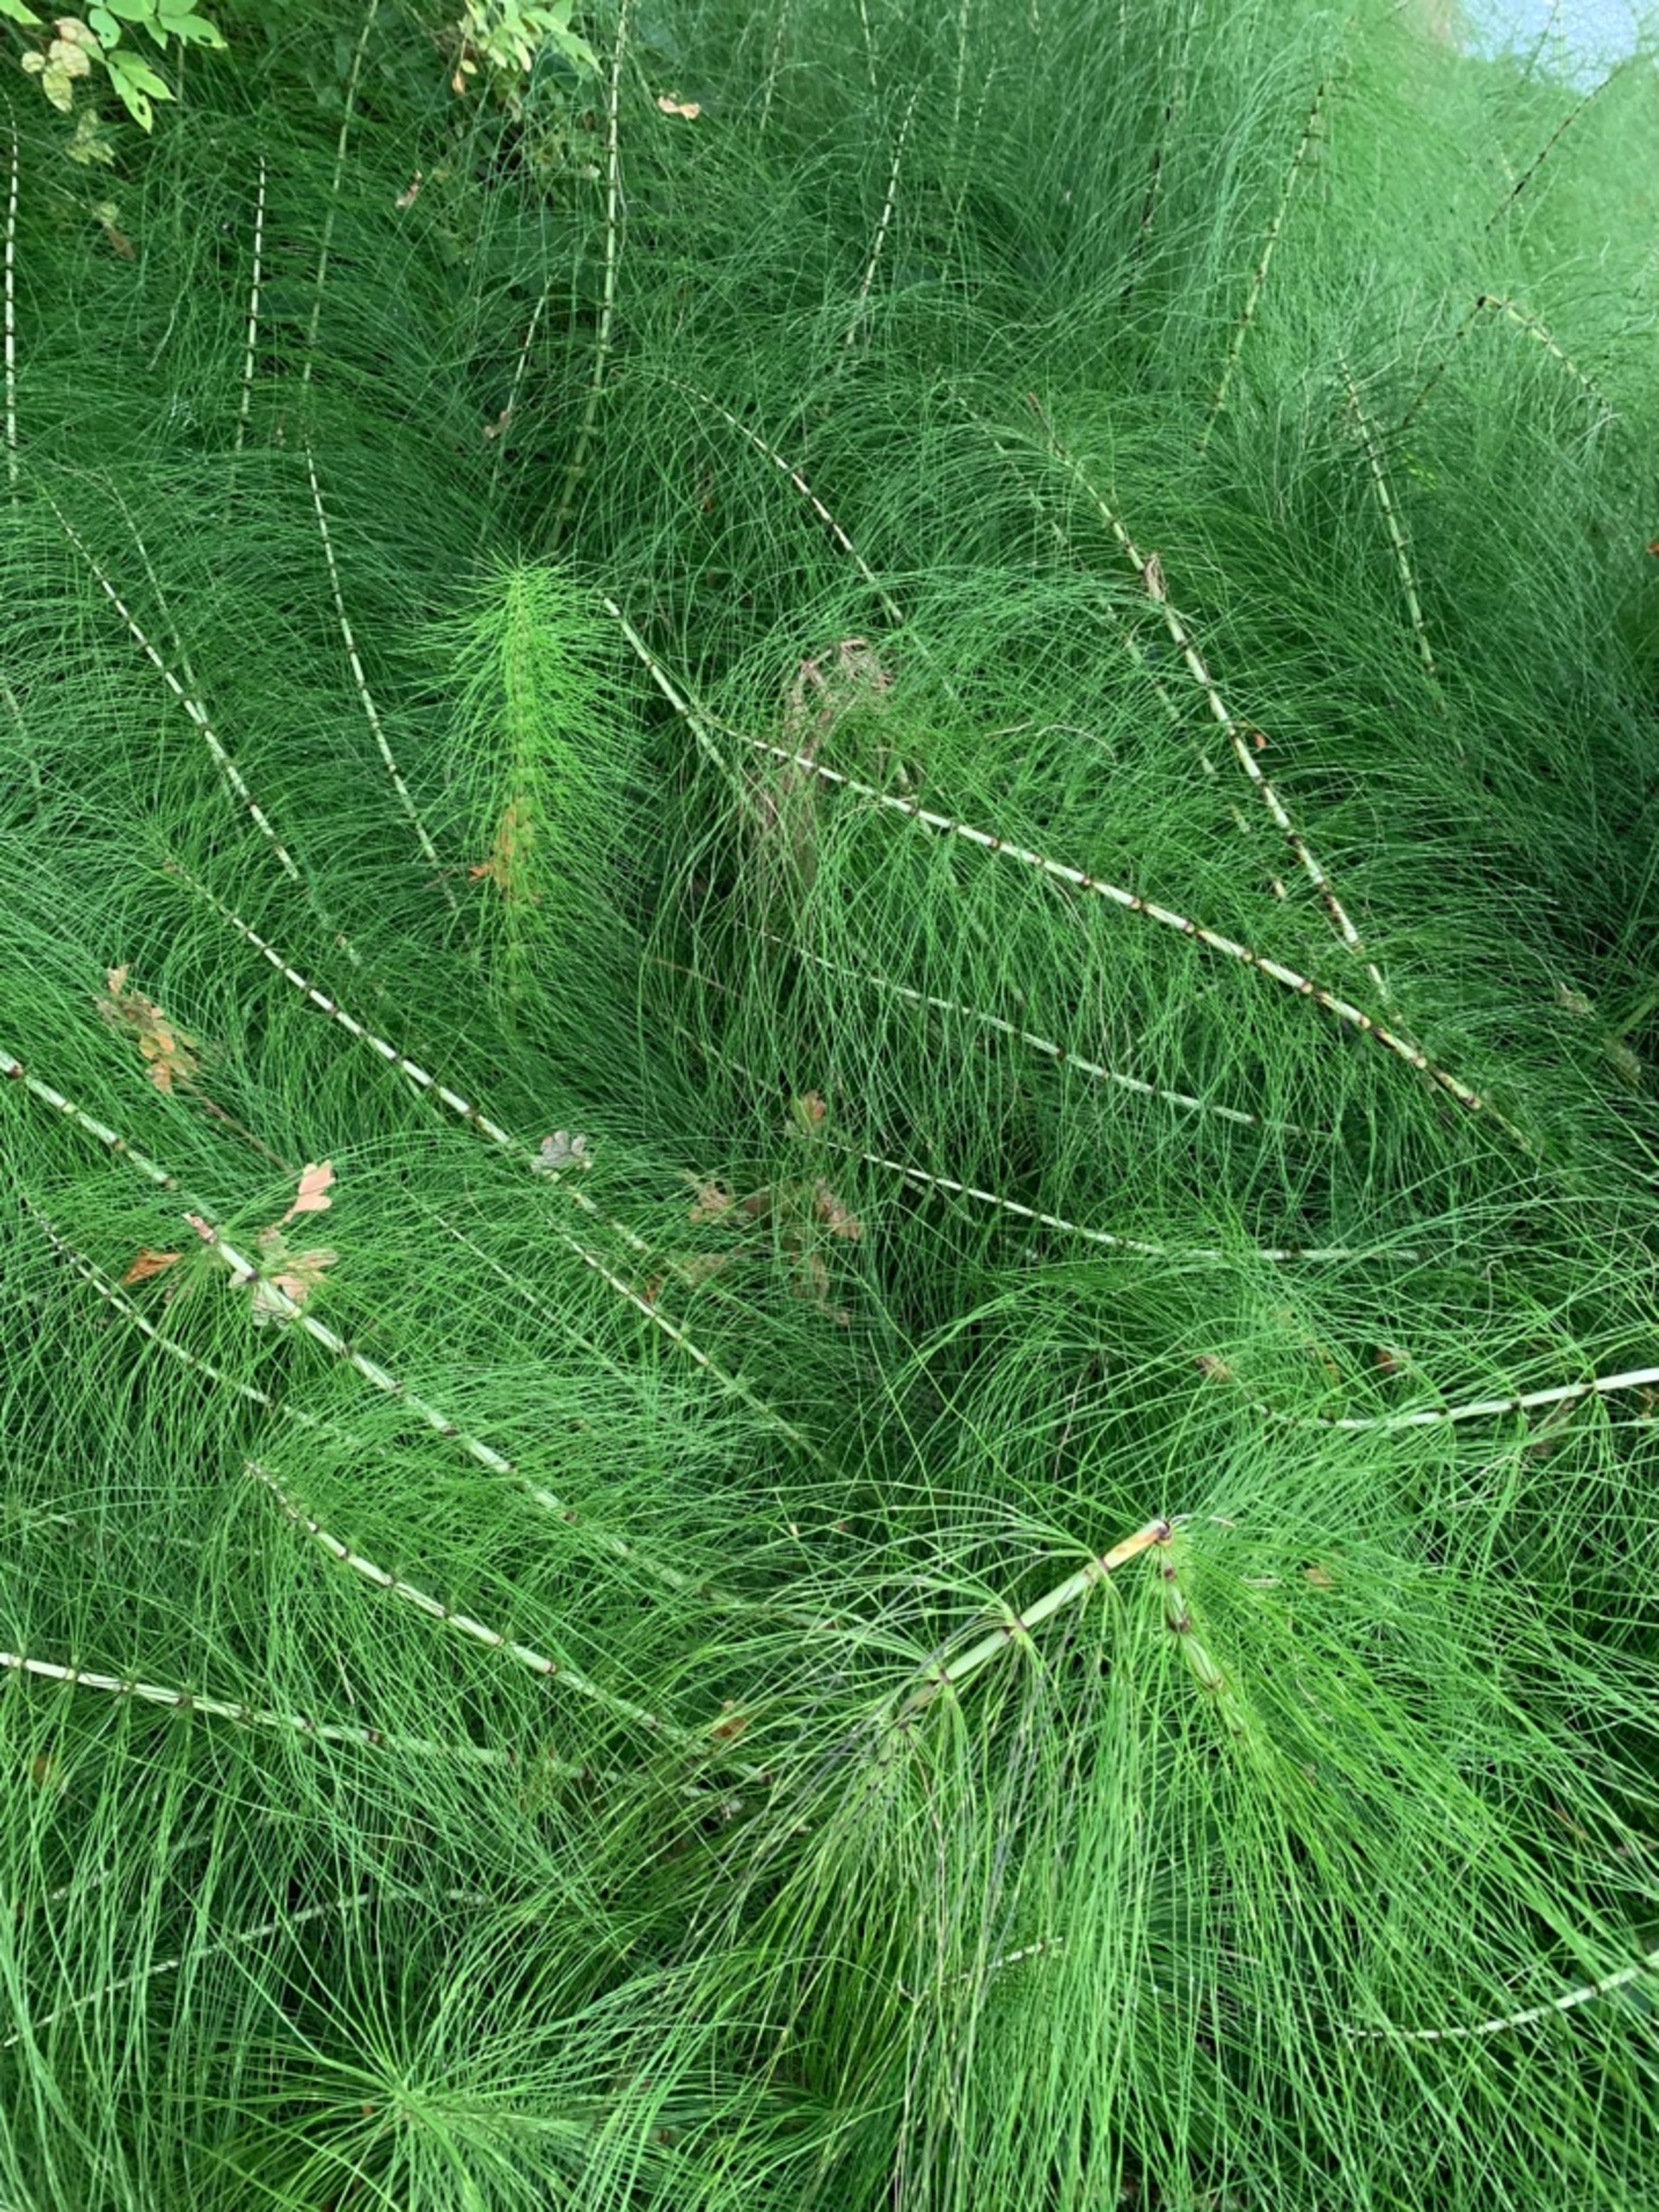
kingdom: Plantae
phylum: Tracheophyta
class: Polypodiopsida
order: Equisetales
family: Equisetaceae
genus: Equisetum
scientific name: Equisetum telmateia
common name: Elfenbens-padderok
